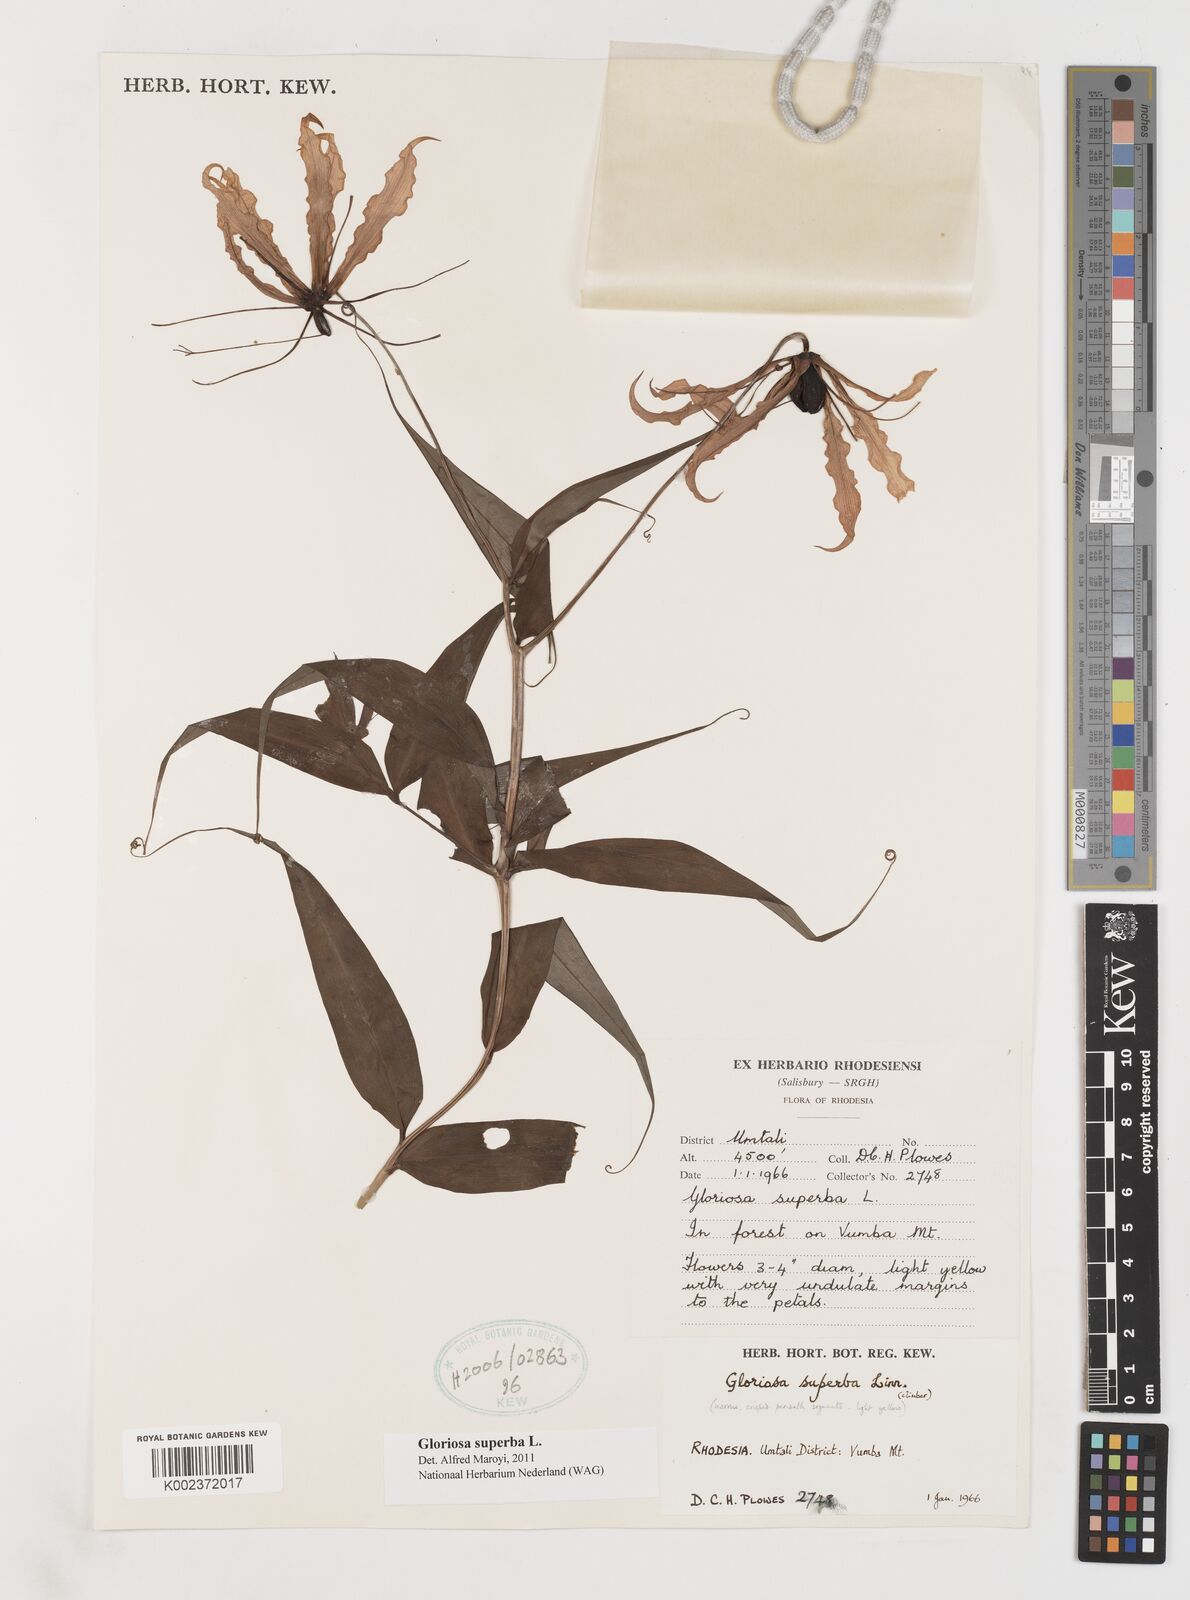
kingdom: Plantae
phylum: Tracheophyta
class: Liliopsida
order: Liliales
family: Colchicaceae
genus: Gloriosa
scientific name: Gloriosa superba
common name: Flame lily
